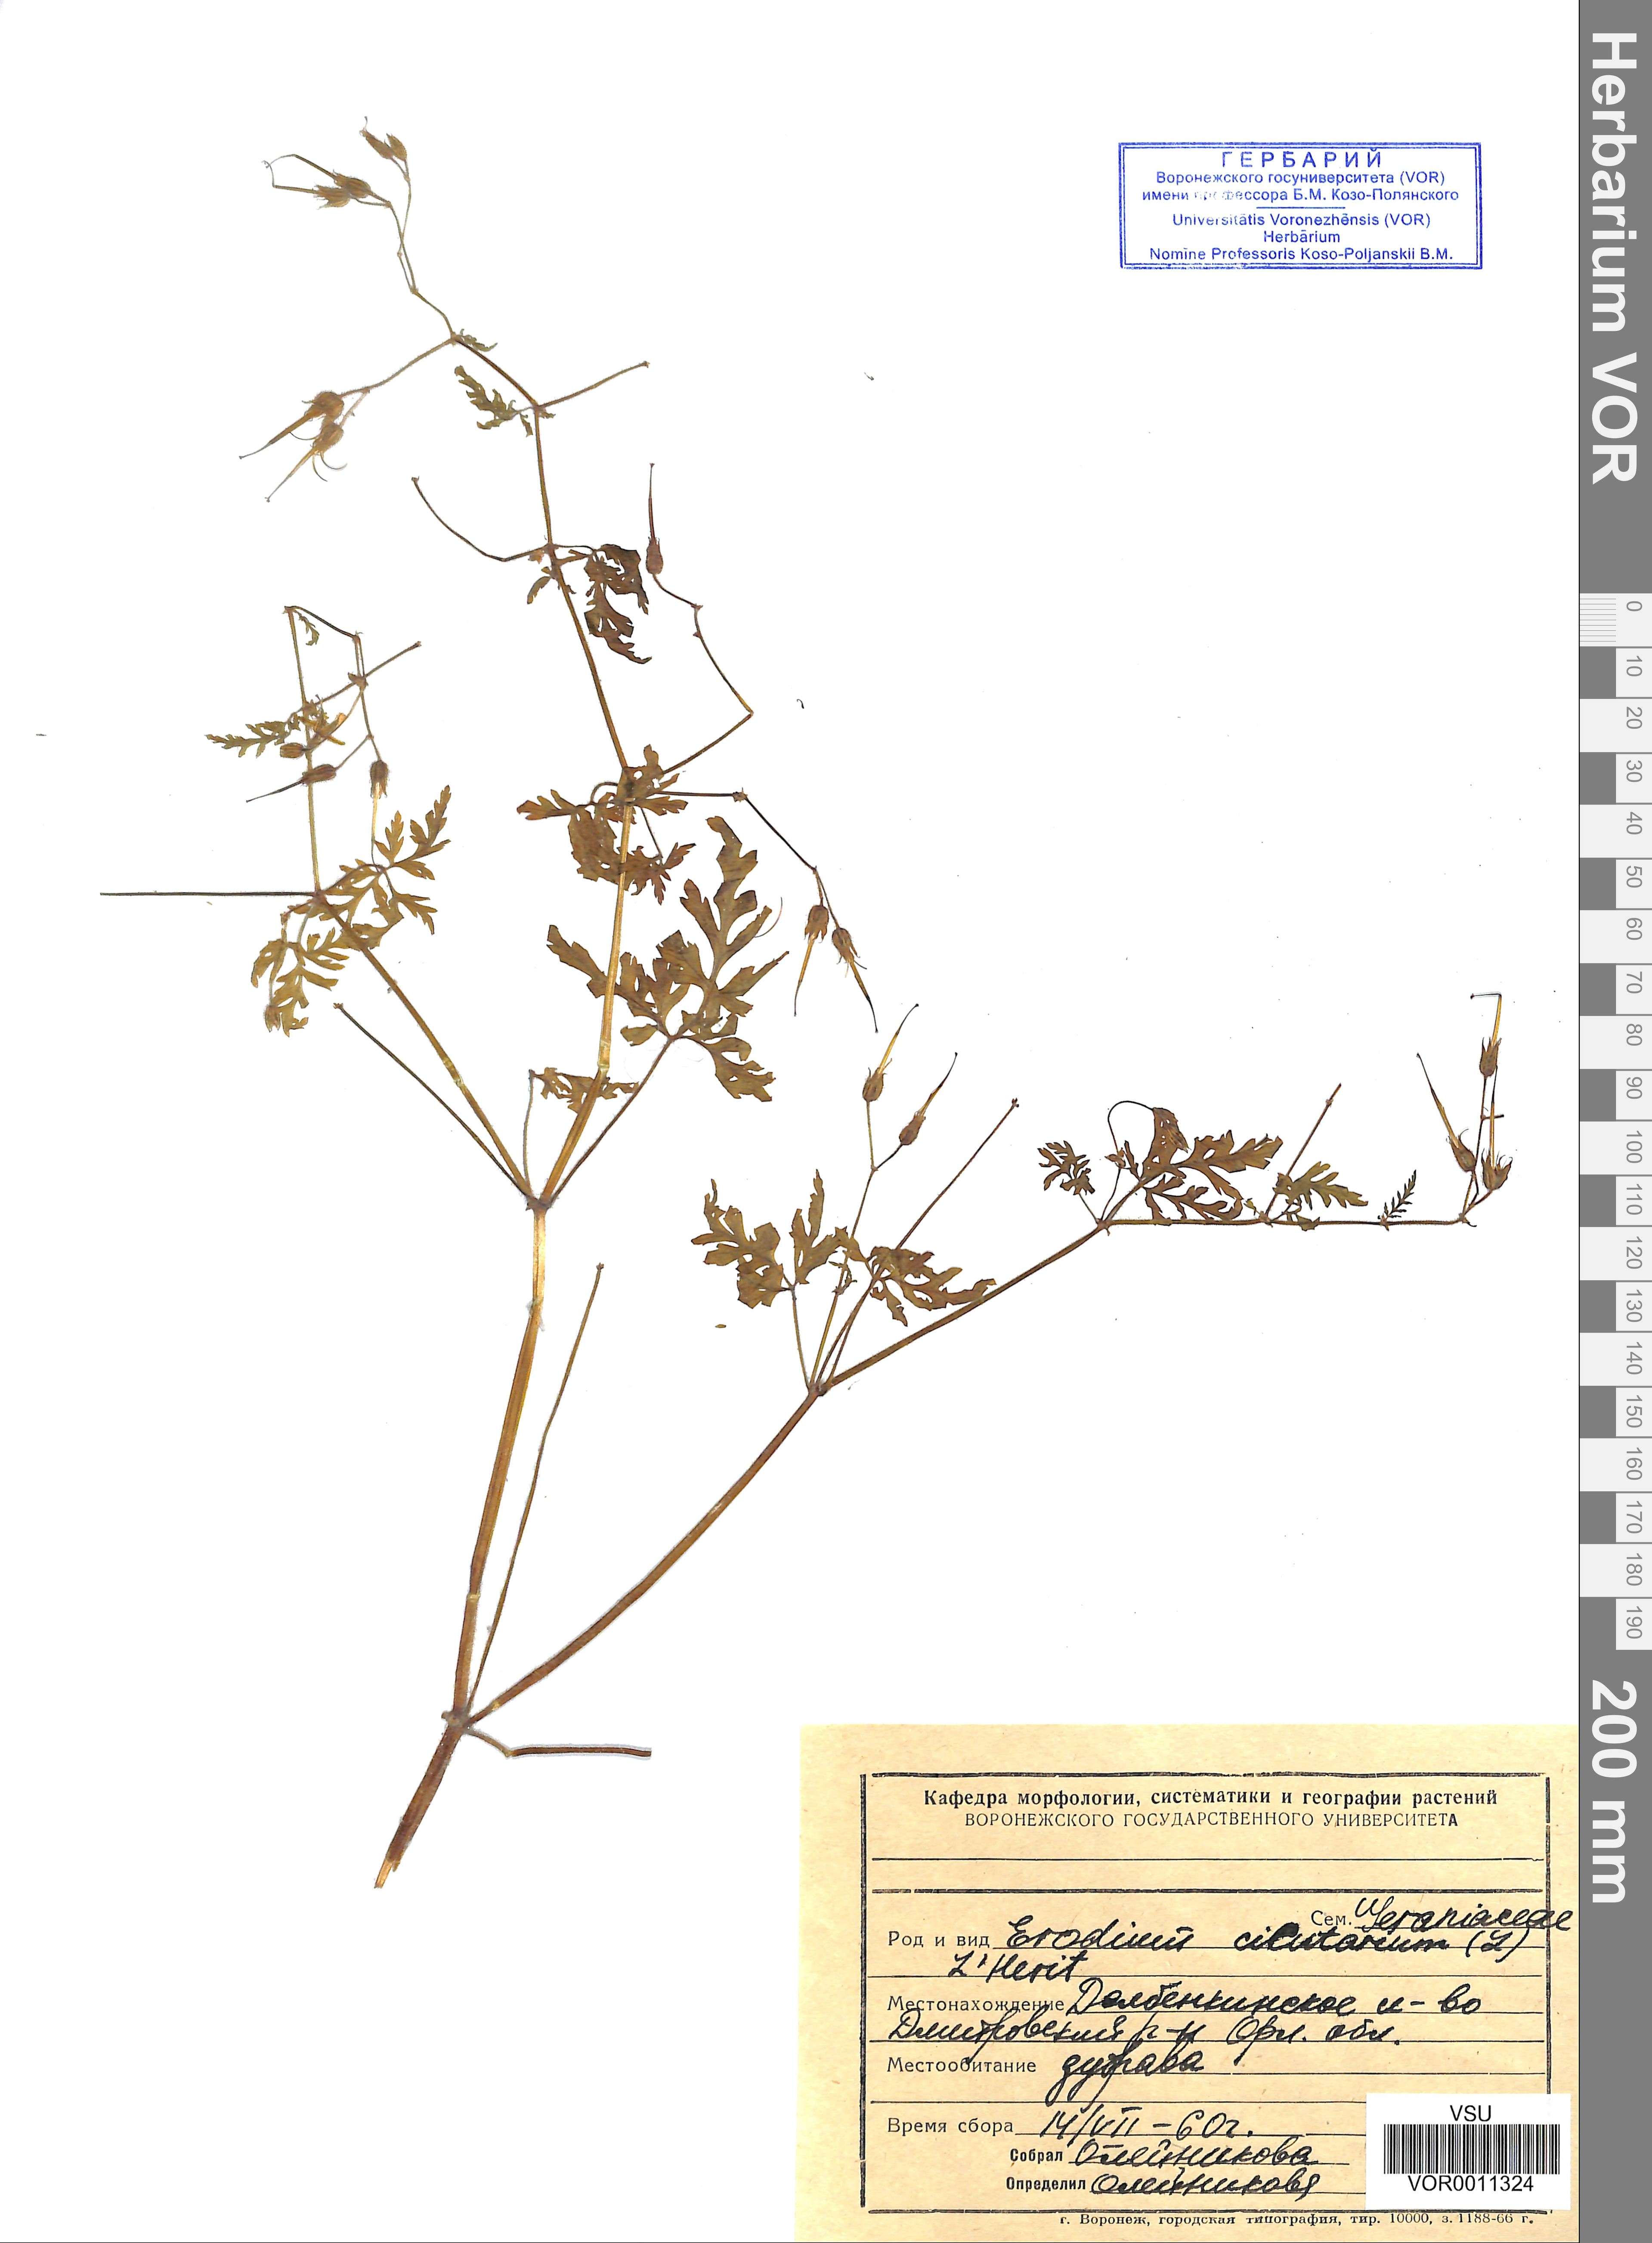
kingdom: Plantae
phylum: Tracheophyta
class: Magnoliopsida
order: Geraniales
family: Geraniaceae
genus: Erodium
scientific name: Erodium cicutarium
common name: Common stork's-bill
